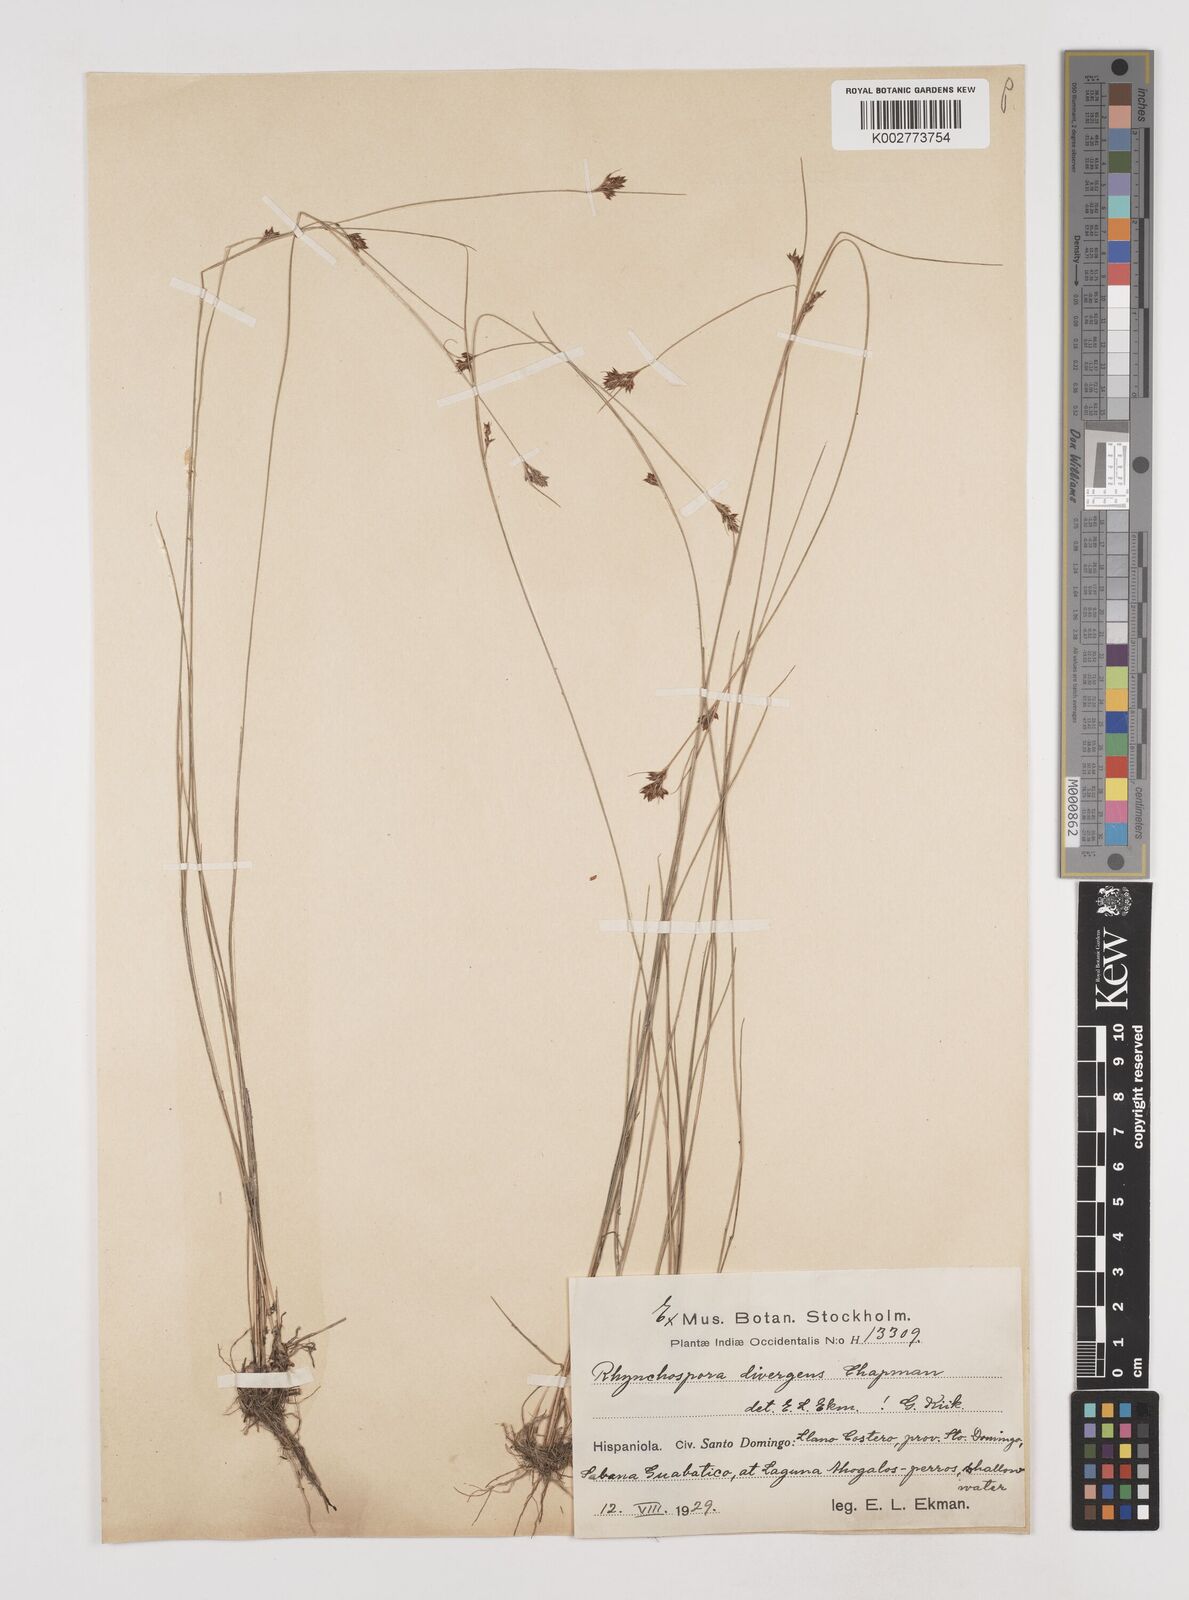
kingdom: Plantae
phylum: Tracheophyta
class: Liliopsida
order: Poales
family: Cyperaceae
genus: Rhynchospora
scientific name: Rhynchospora divergens
